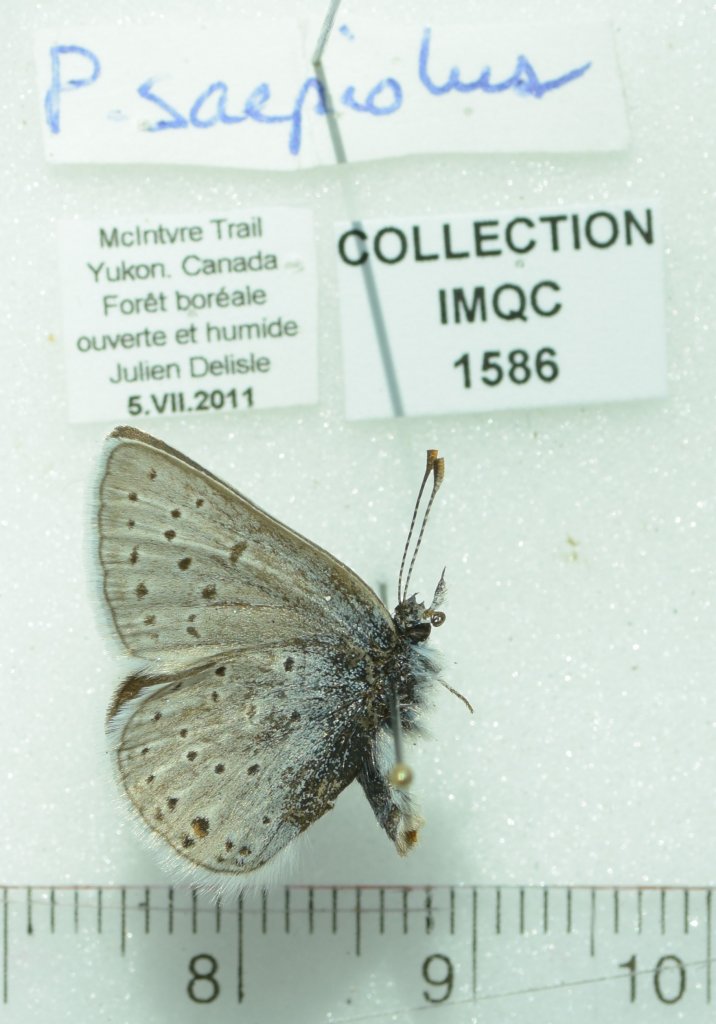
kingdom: Animalia
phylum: Arthropoda
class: Insecta
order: Lepidoptera
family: Lycaenidae
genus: Plebejus
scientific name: Plebejus saepiolus
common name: Greenish Blue
